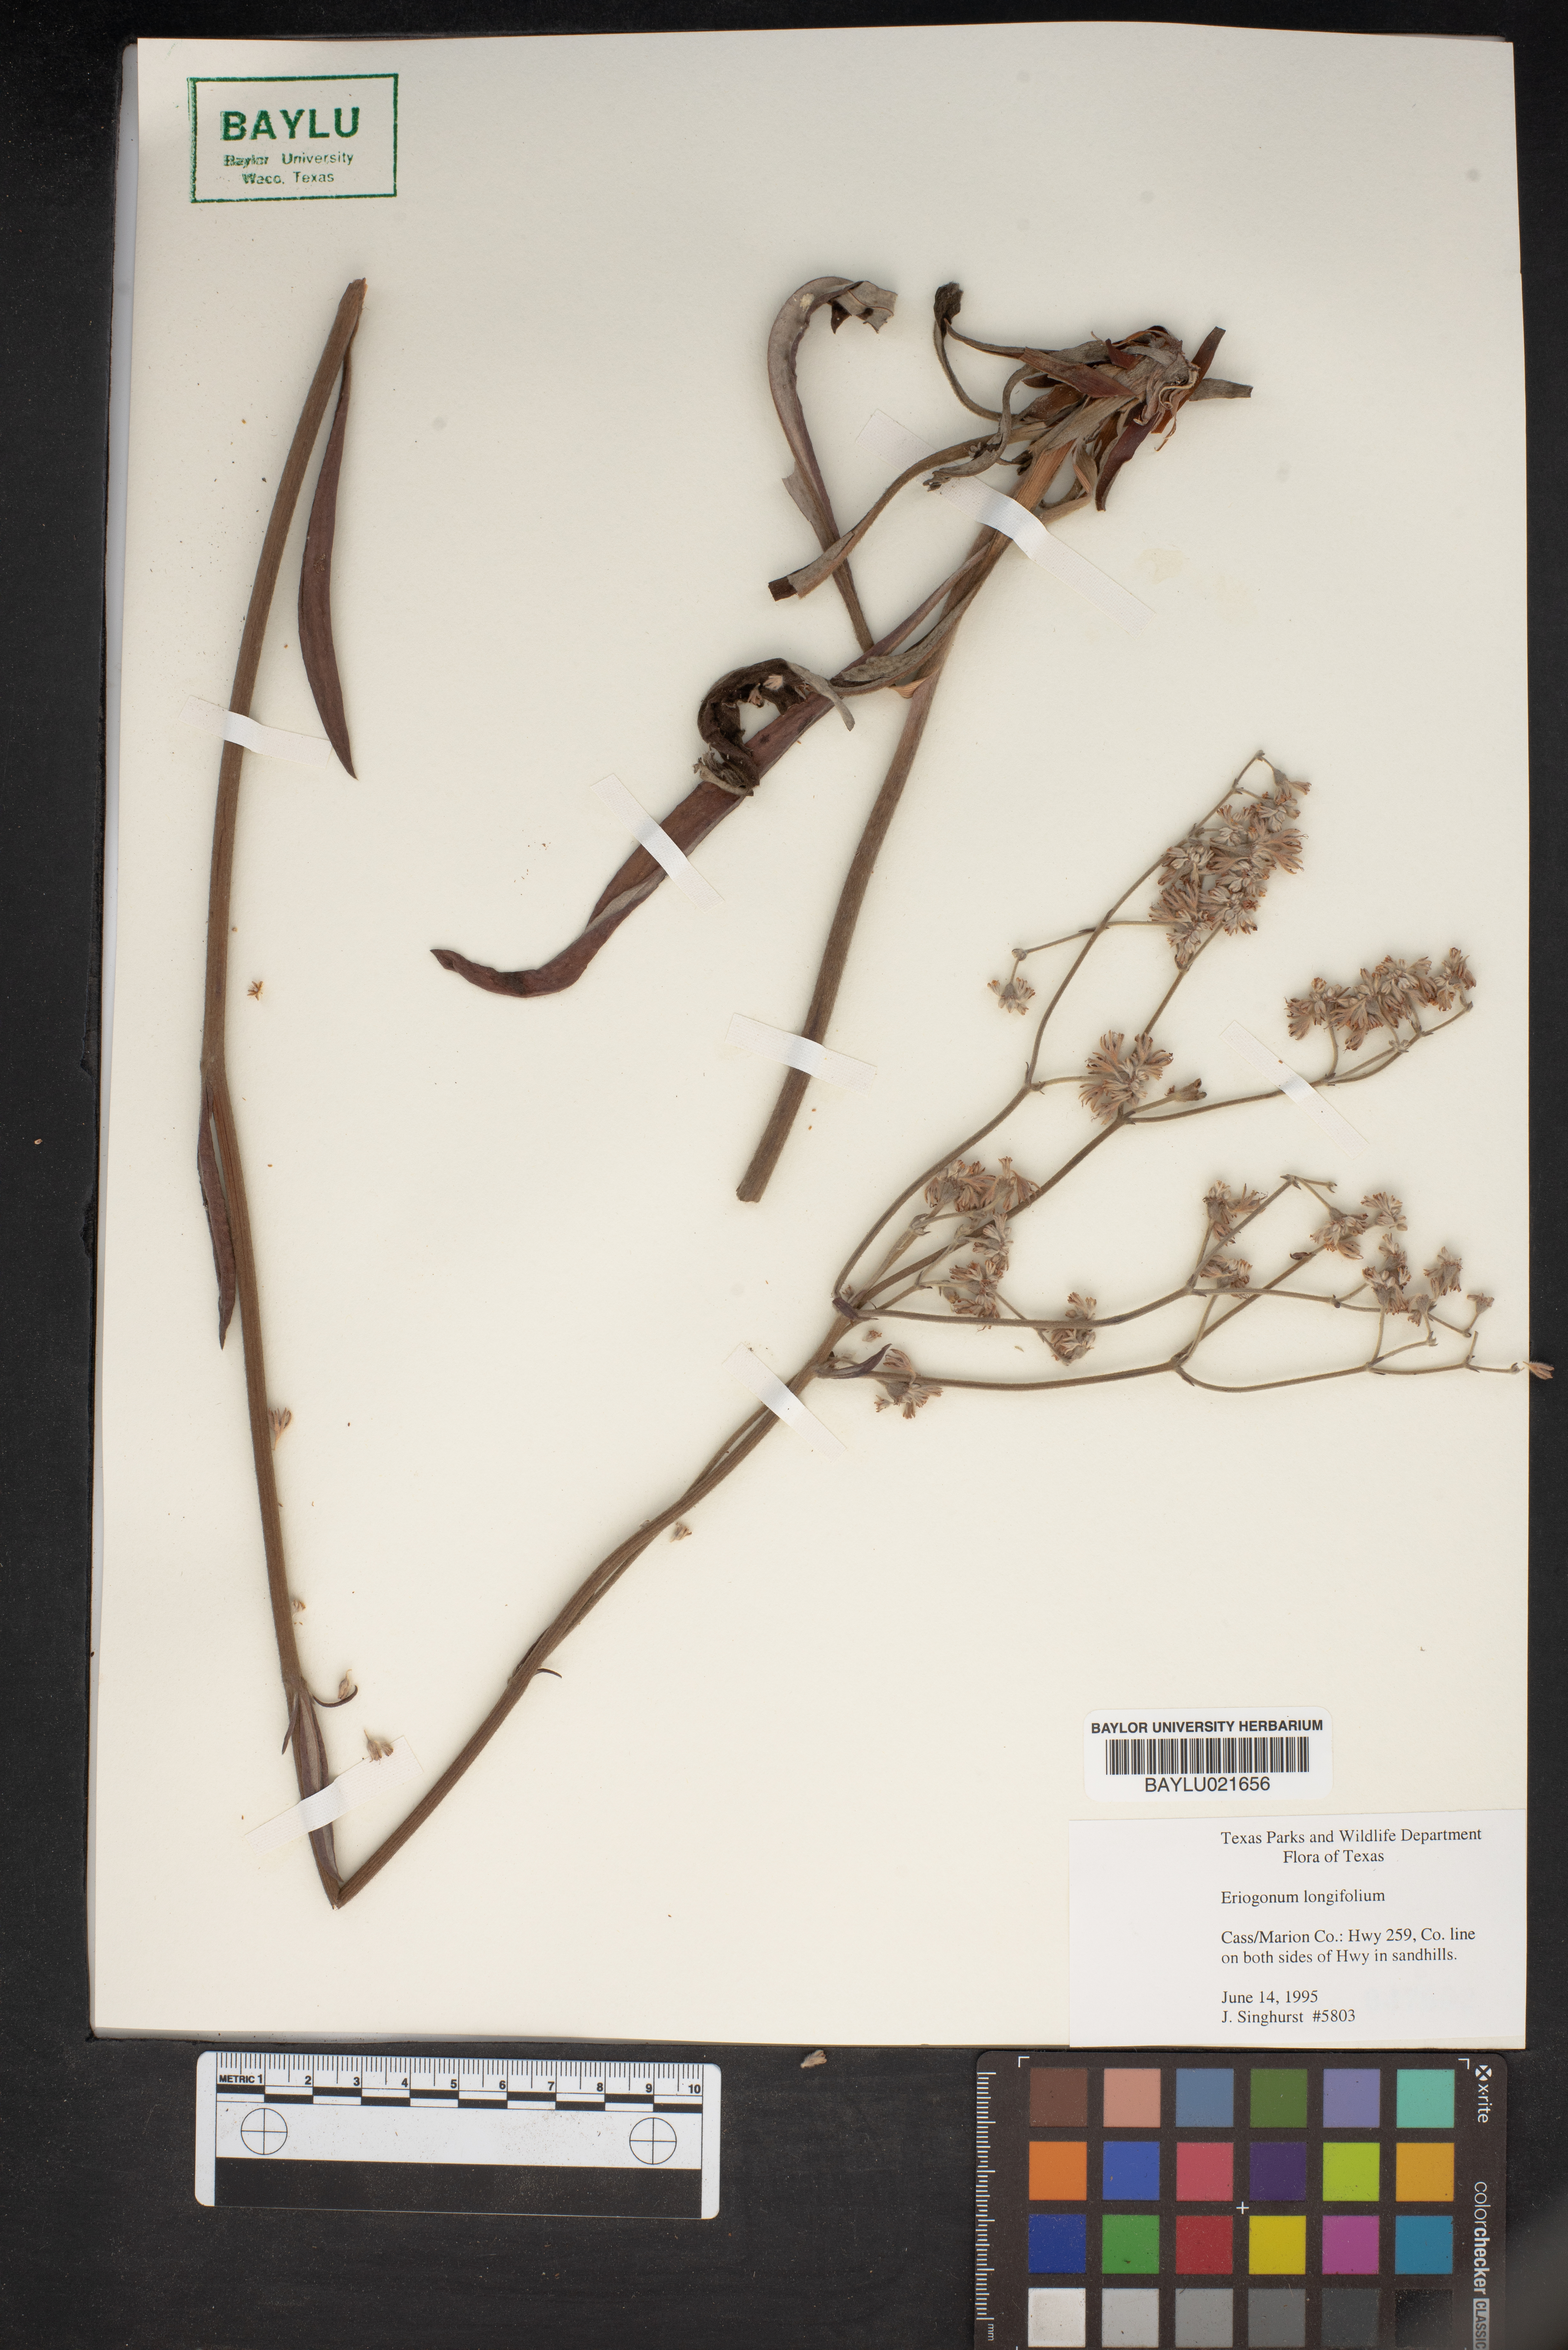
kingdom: Plantae
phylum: Tracheophyta
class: Magnoliopsida
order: Caryophyllales
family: Polygonaceae
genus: Eriogonum
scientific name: Eriogonum longifolium
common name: Longleaf wild buckwheat
